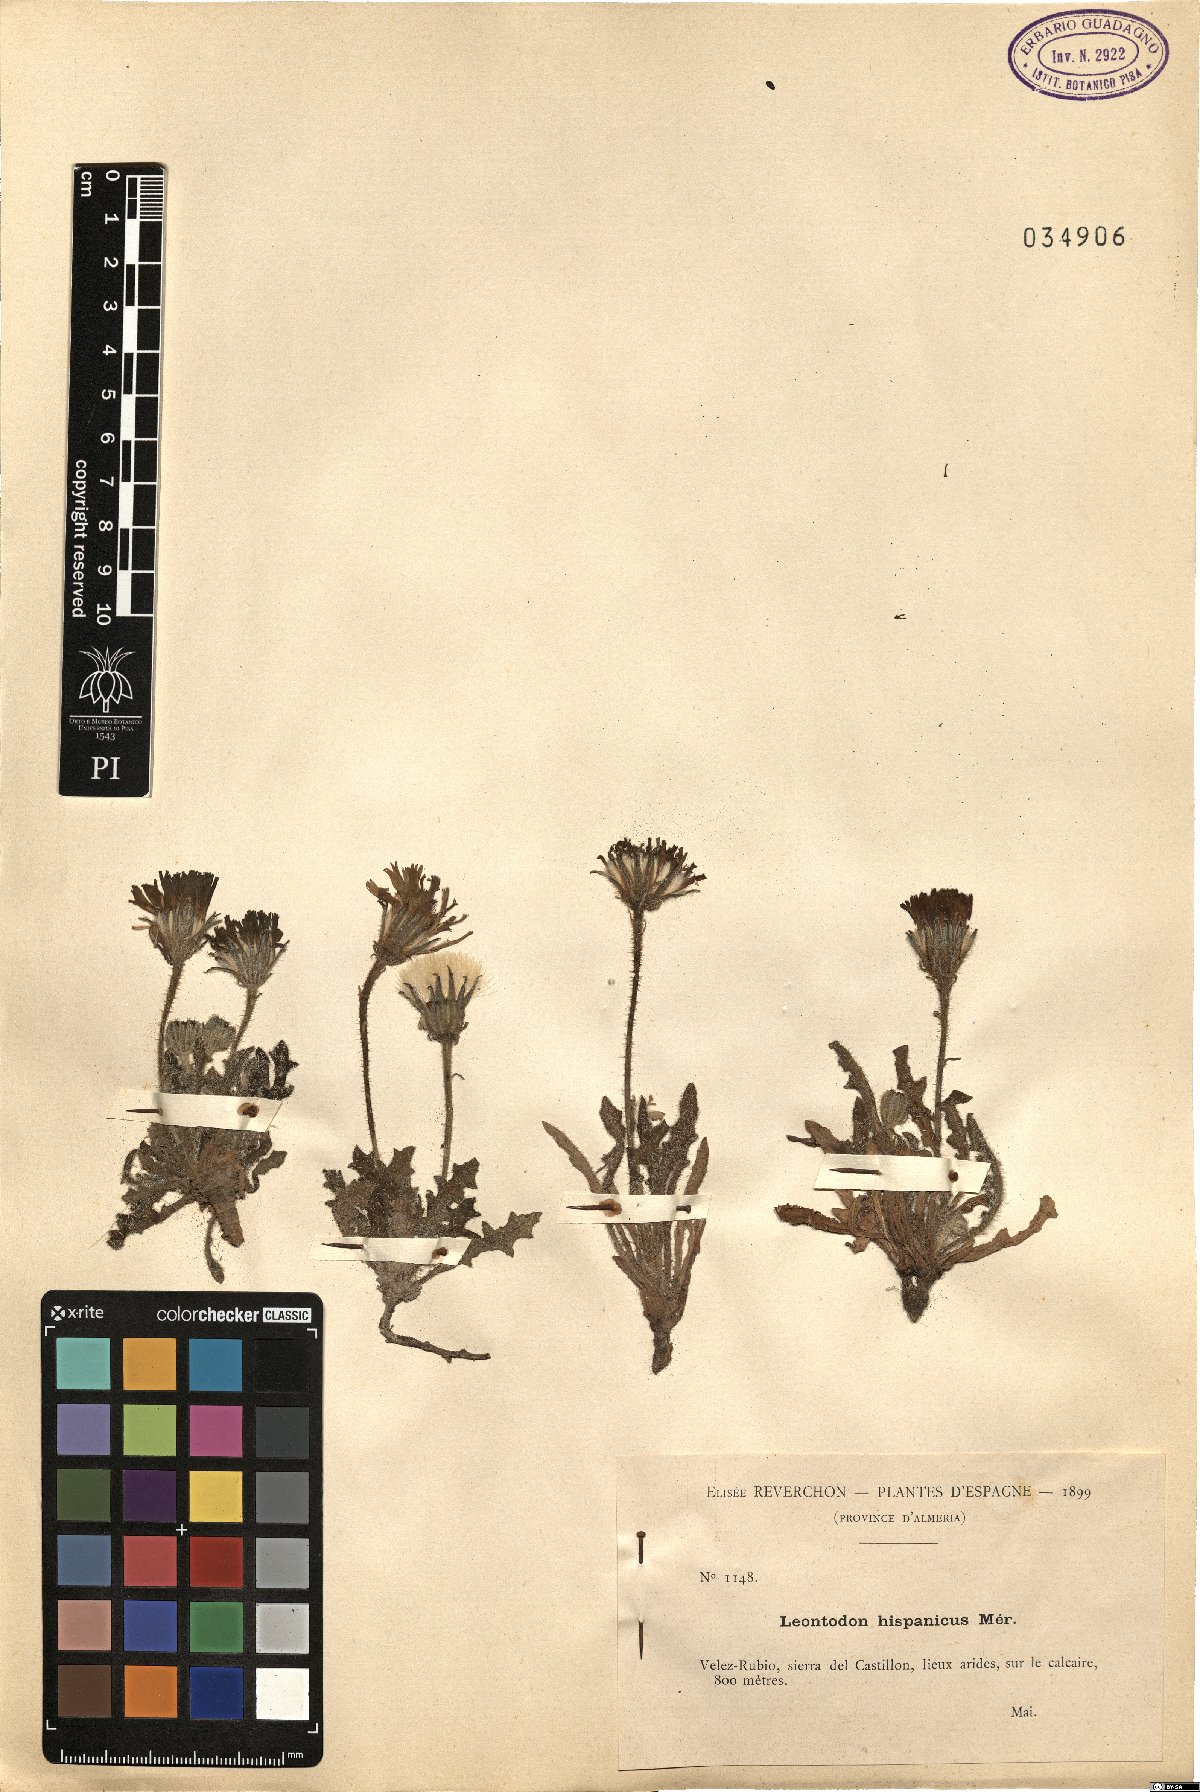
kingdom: Plantae
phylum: Tracheophyta
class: Magnoliopsida
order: Asterales
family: Asteraceae
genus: Picris
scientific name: Picris hispanica
